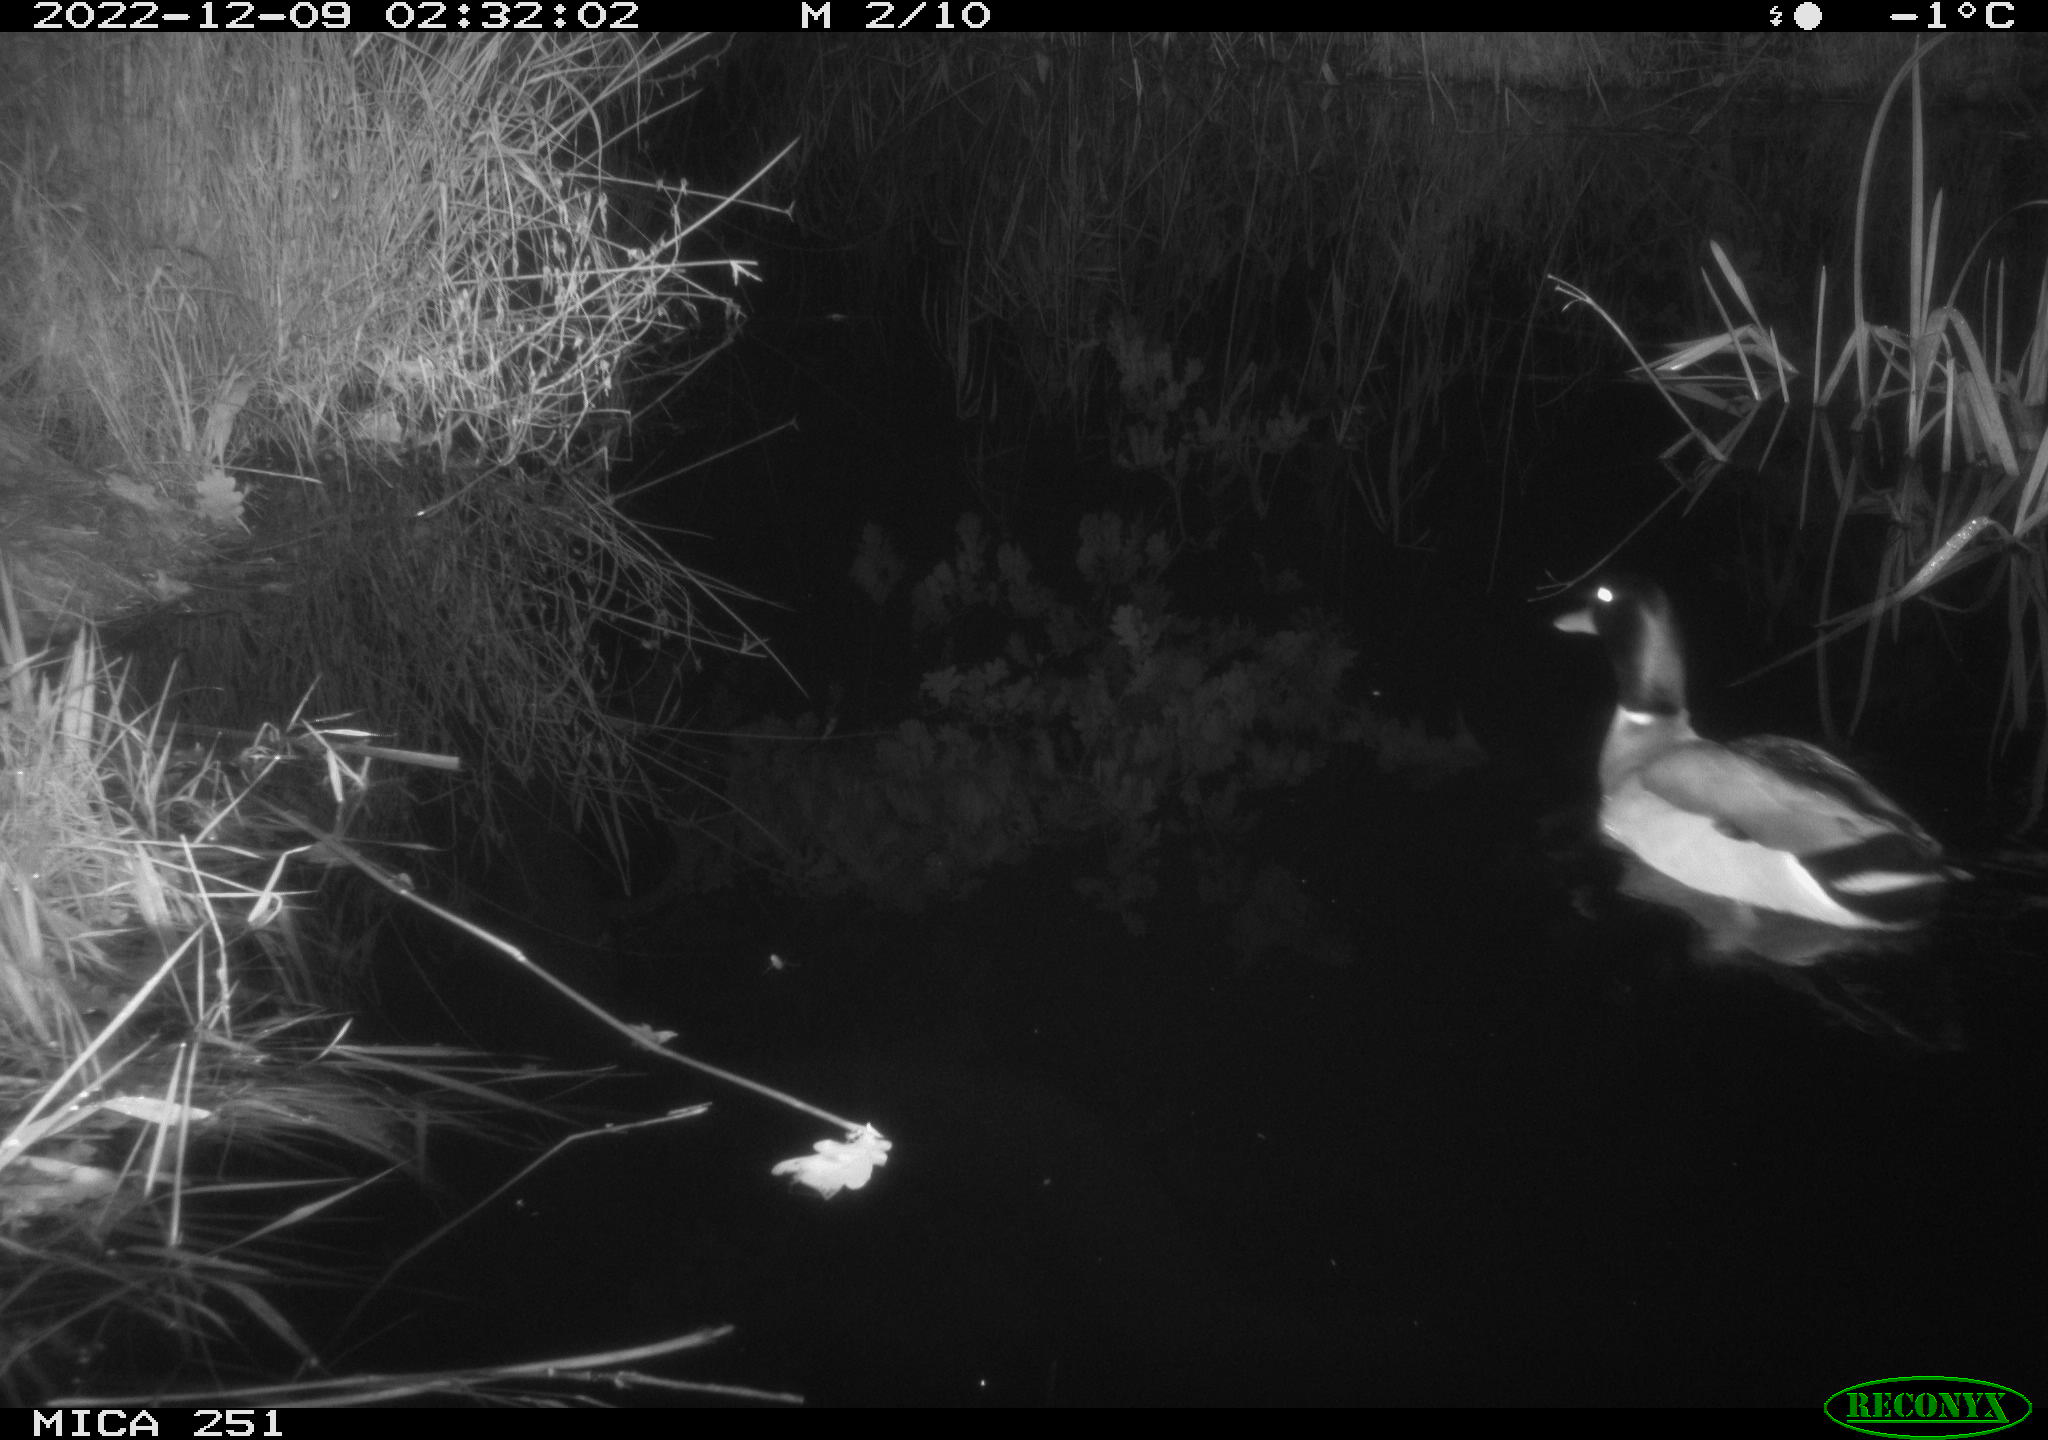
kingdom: Animalia
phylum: Chordata
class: Aves
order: Anseriformes
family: Anatidae
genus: Anas
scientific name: Anas
